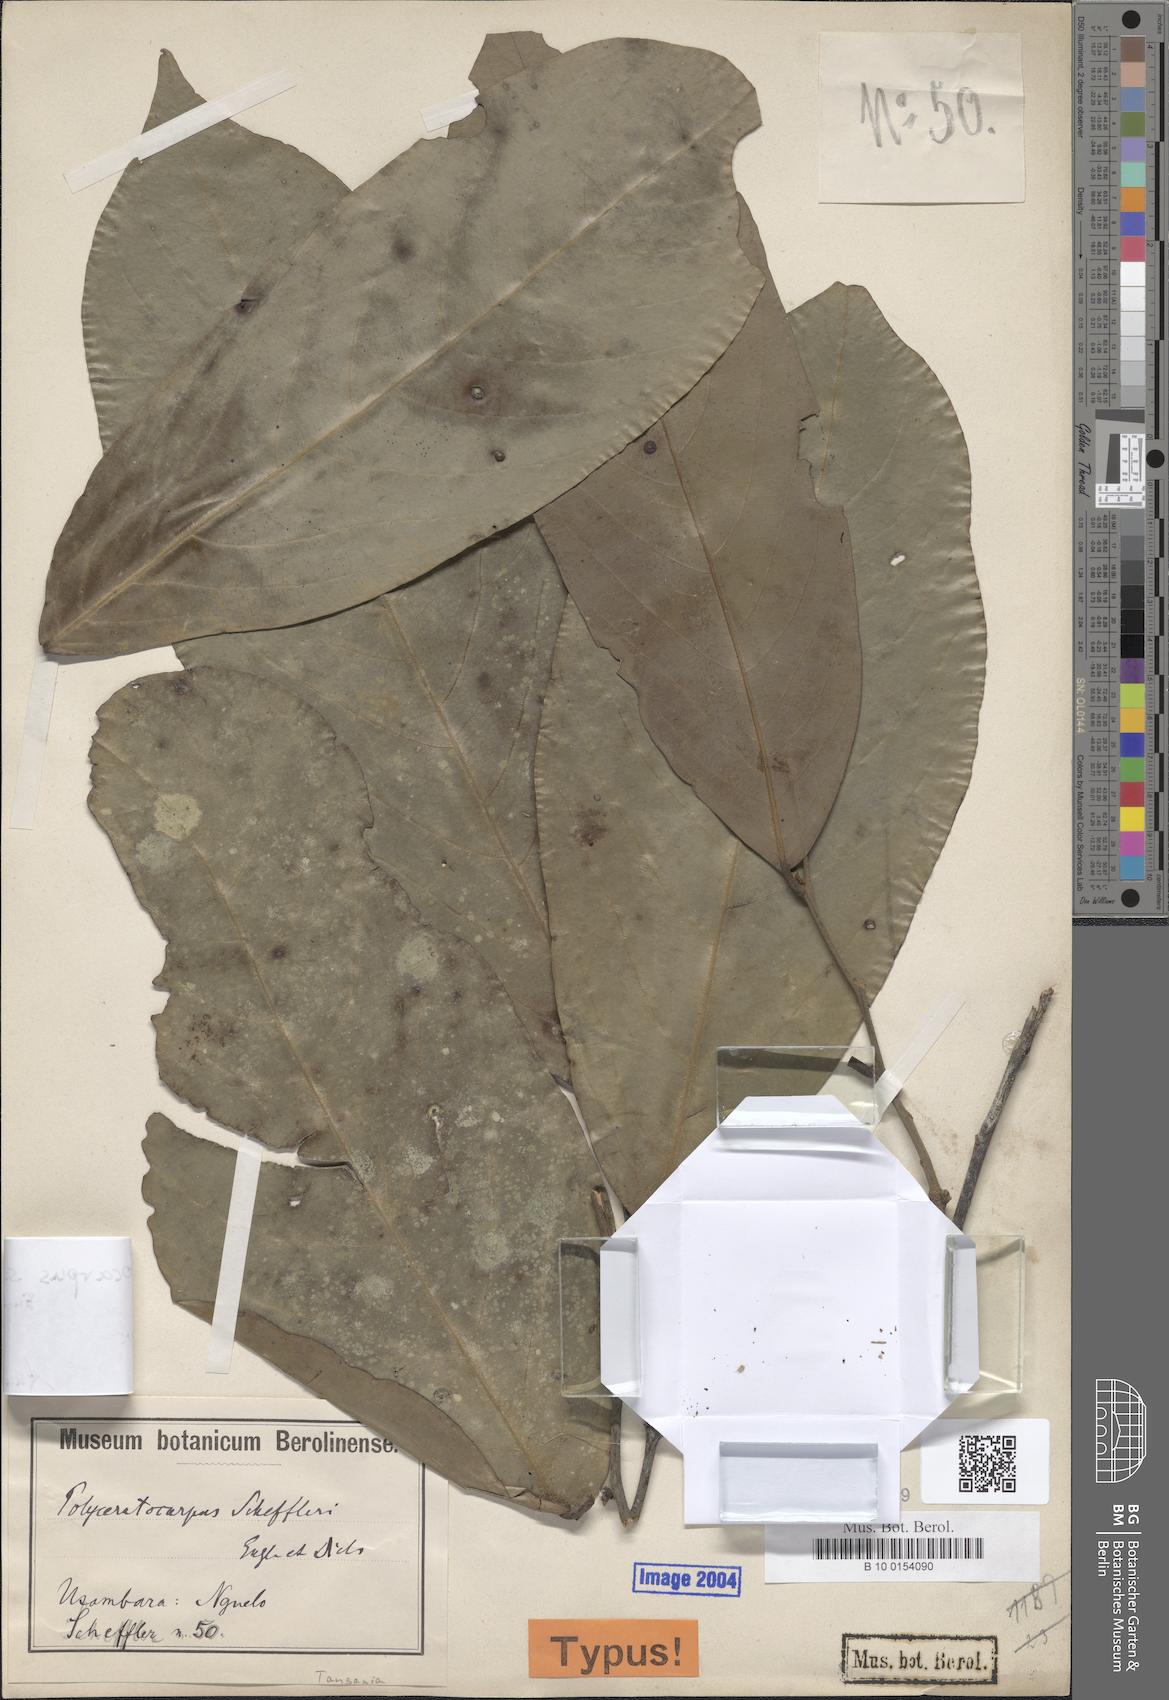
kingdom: Plantae
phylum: Tracheophyta
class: Magnoliopsida
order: Magnoliales
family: Annonaceae
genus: Polyceratocarpus
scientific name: Polyceratocarpus scheffleri
